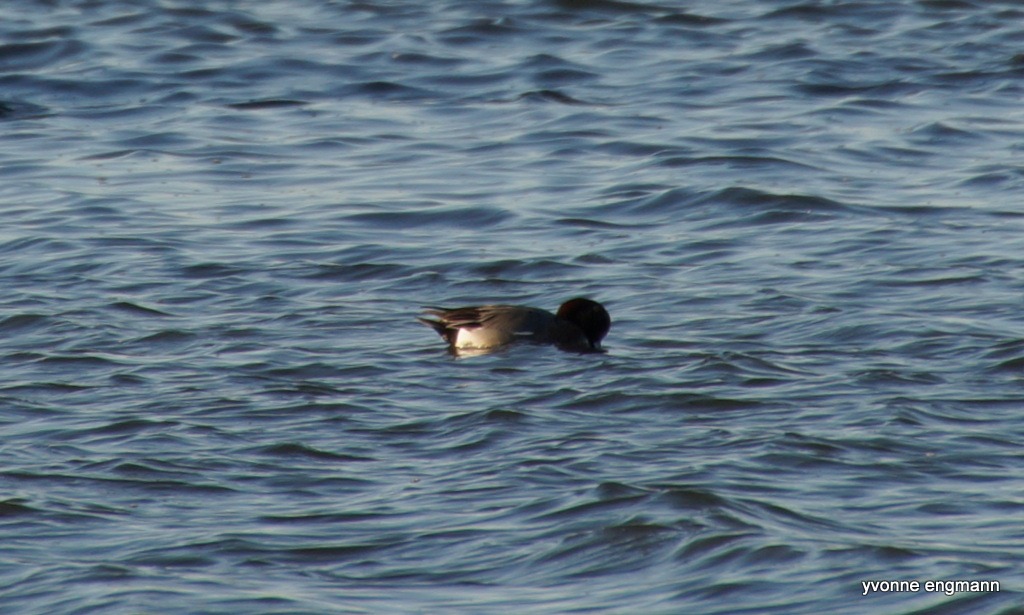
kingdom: Animalia
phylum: Chordata
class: Aves
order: Anseriformes
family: Anatidae
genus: Mareca
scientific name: Mareca penelope
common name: Pibeand
